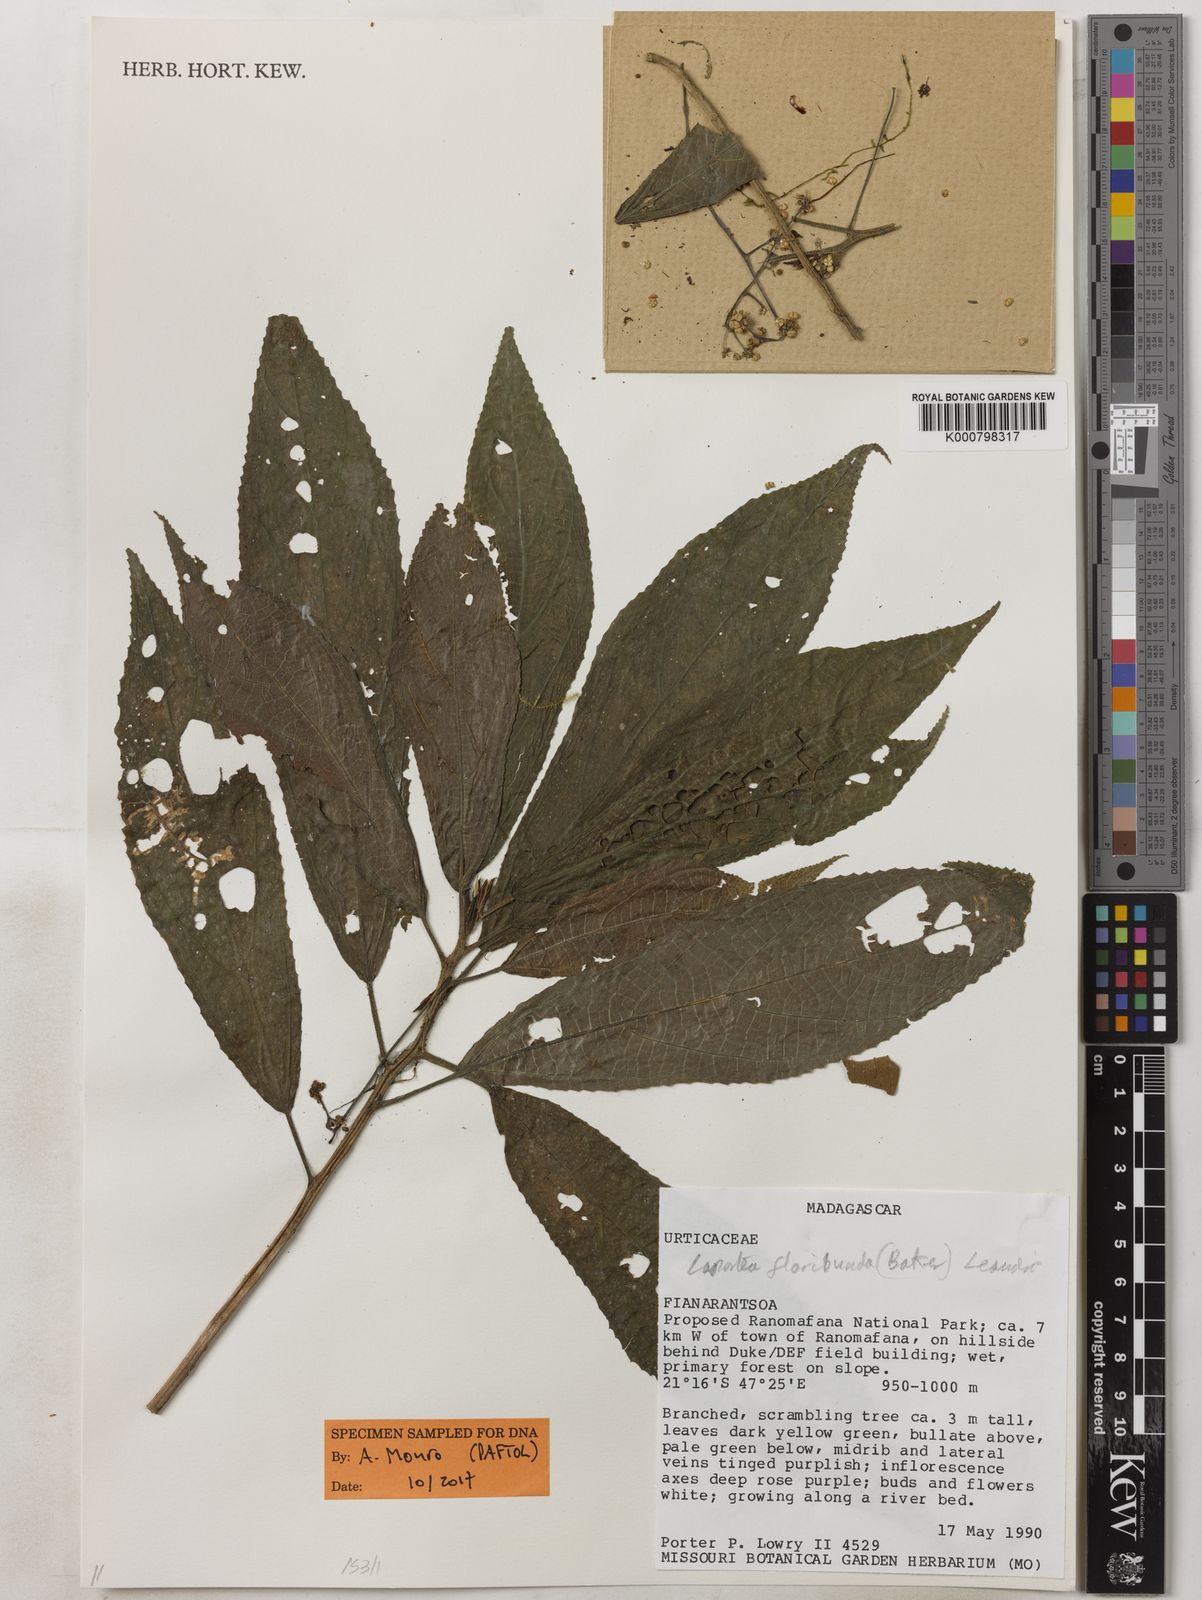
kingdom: Plantae
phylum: Tracheophyta
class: Magnoliopsida
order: Rosales
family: Urticaceae
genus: Laportea
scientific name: Laportea floribunda
